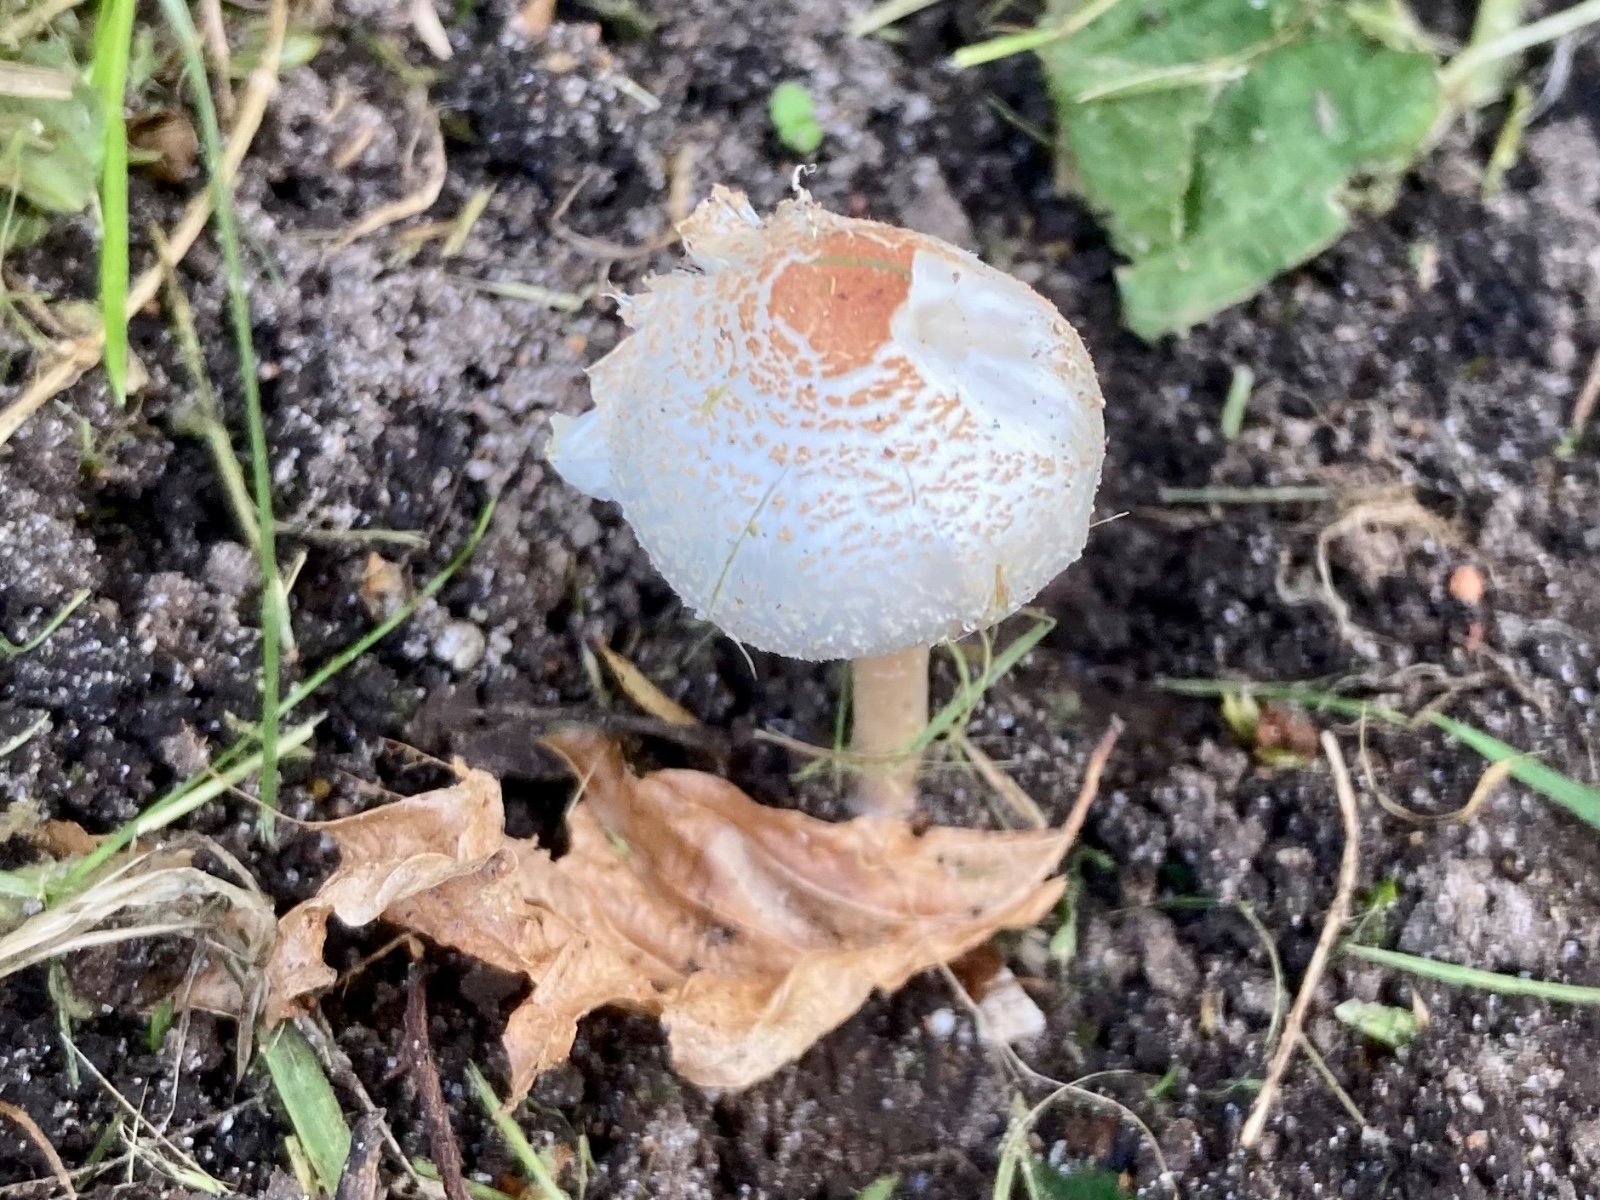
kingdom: Fungi
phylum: Basidiomycota
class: Agaricomycetes
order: Agaricales
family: Agaricaceae
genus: Lepiota
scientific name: Lepiota cristata
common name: stinkende parasolhat
